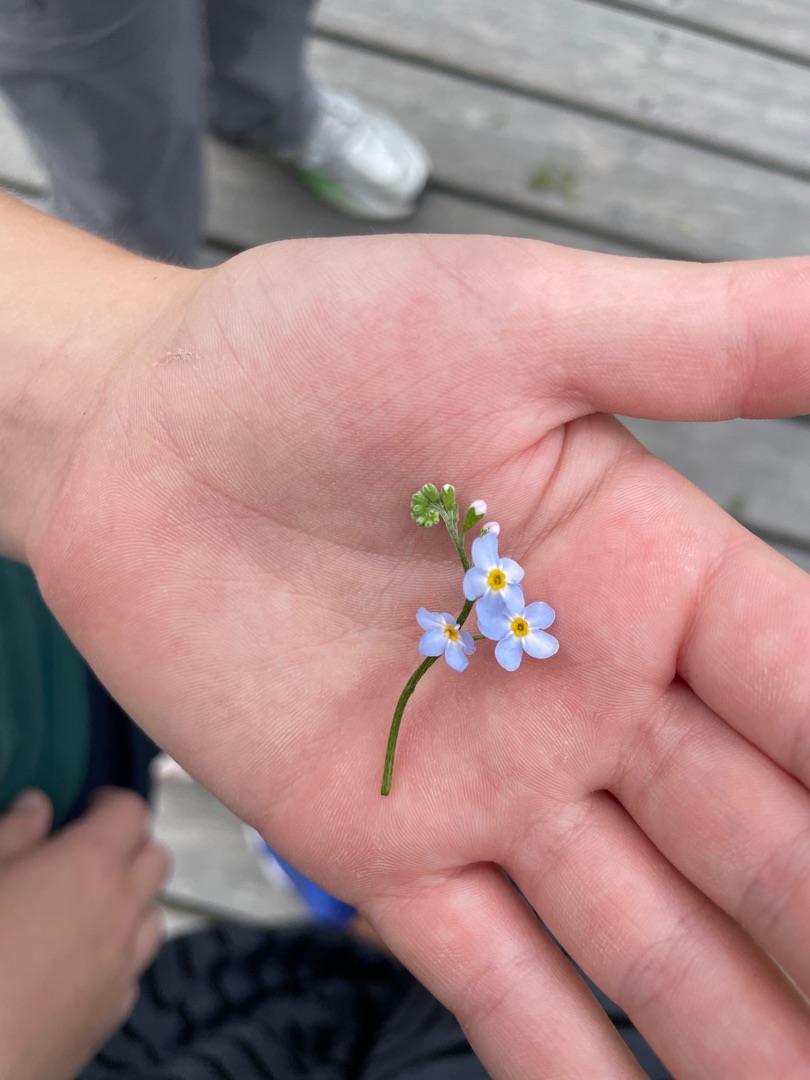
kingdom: Plantae
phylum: Tracheophyta
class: Magnoliopsida
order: Boraginales
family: Boraginaceae
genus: Myosotis
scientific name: Myosotis scorpioides
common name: Eng-forglemmigej
